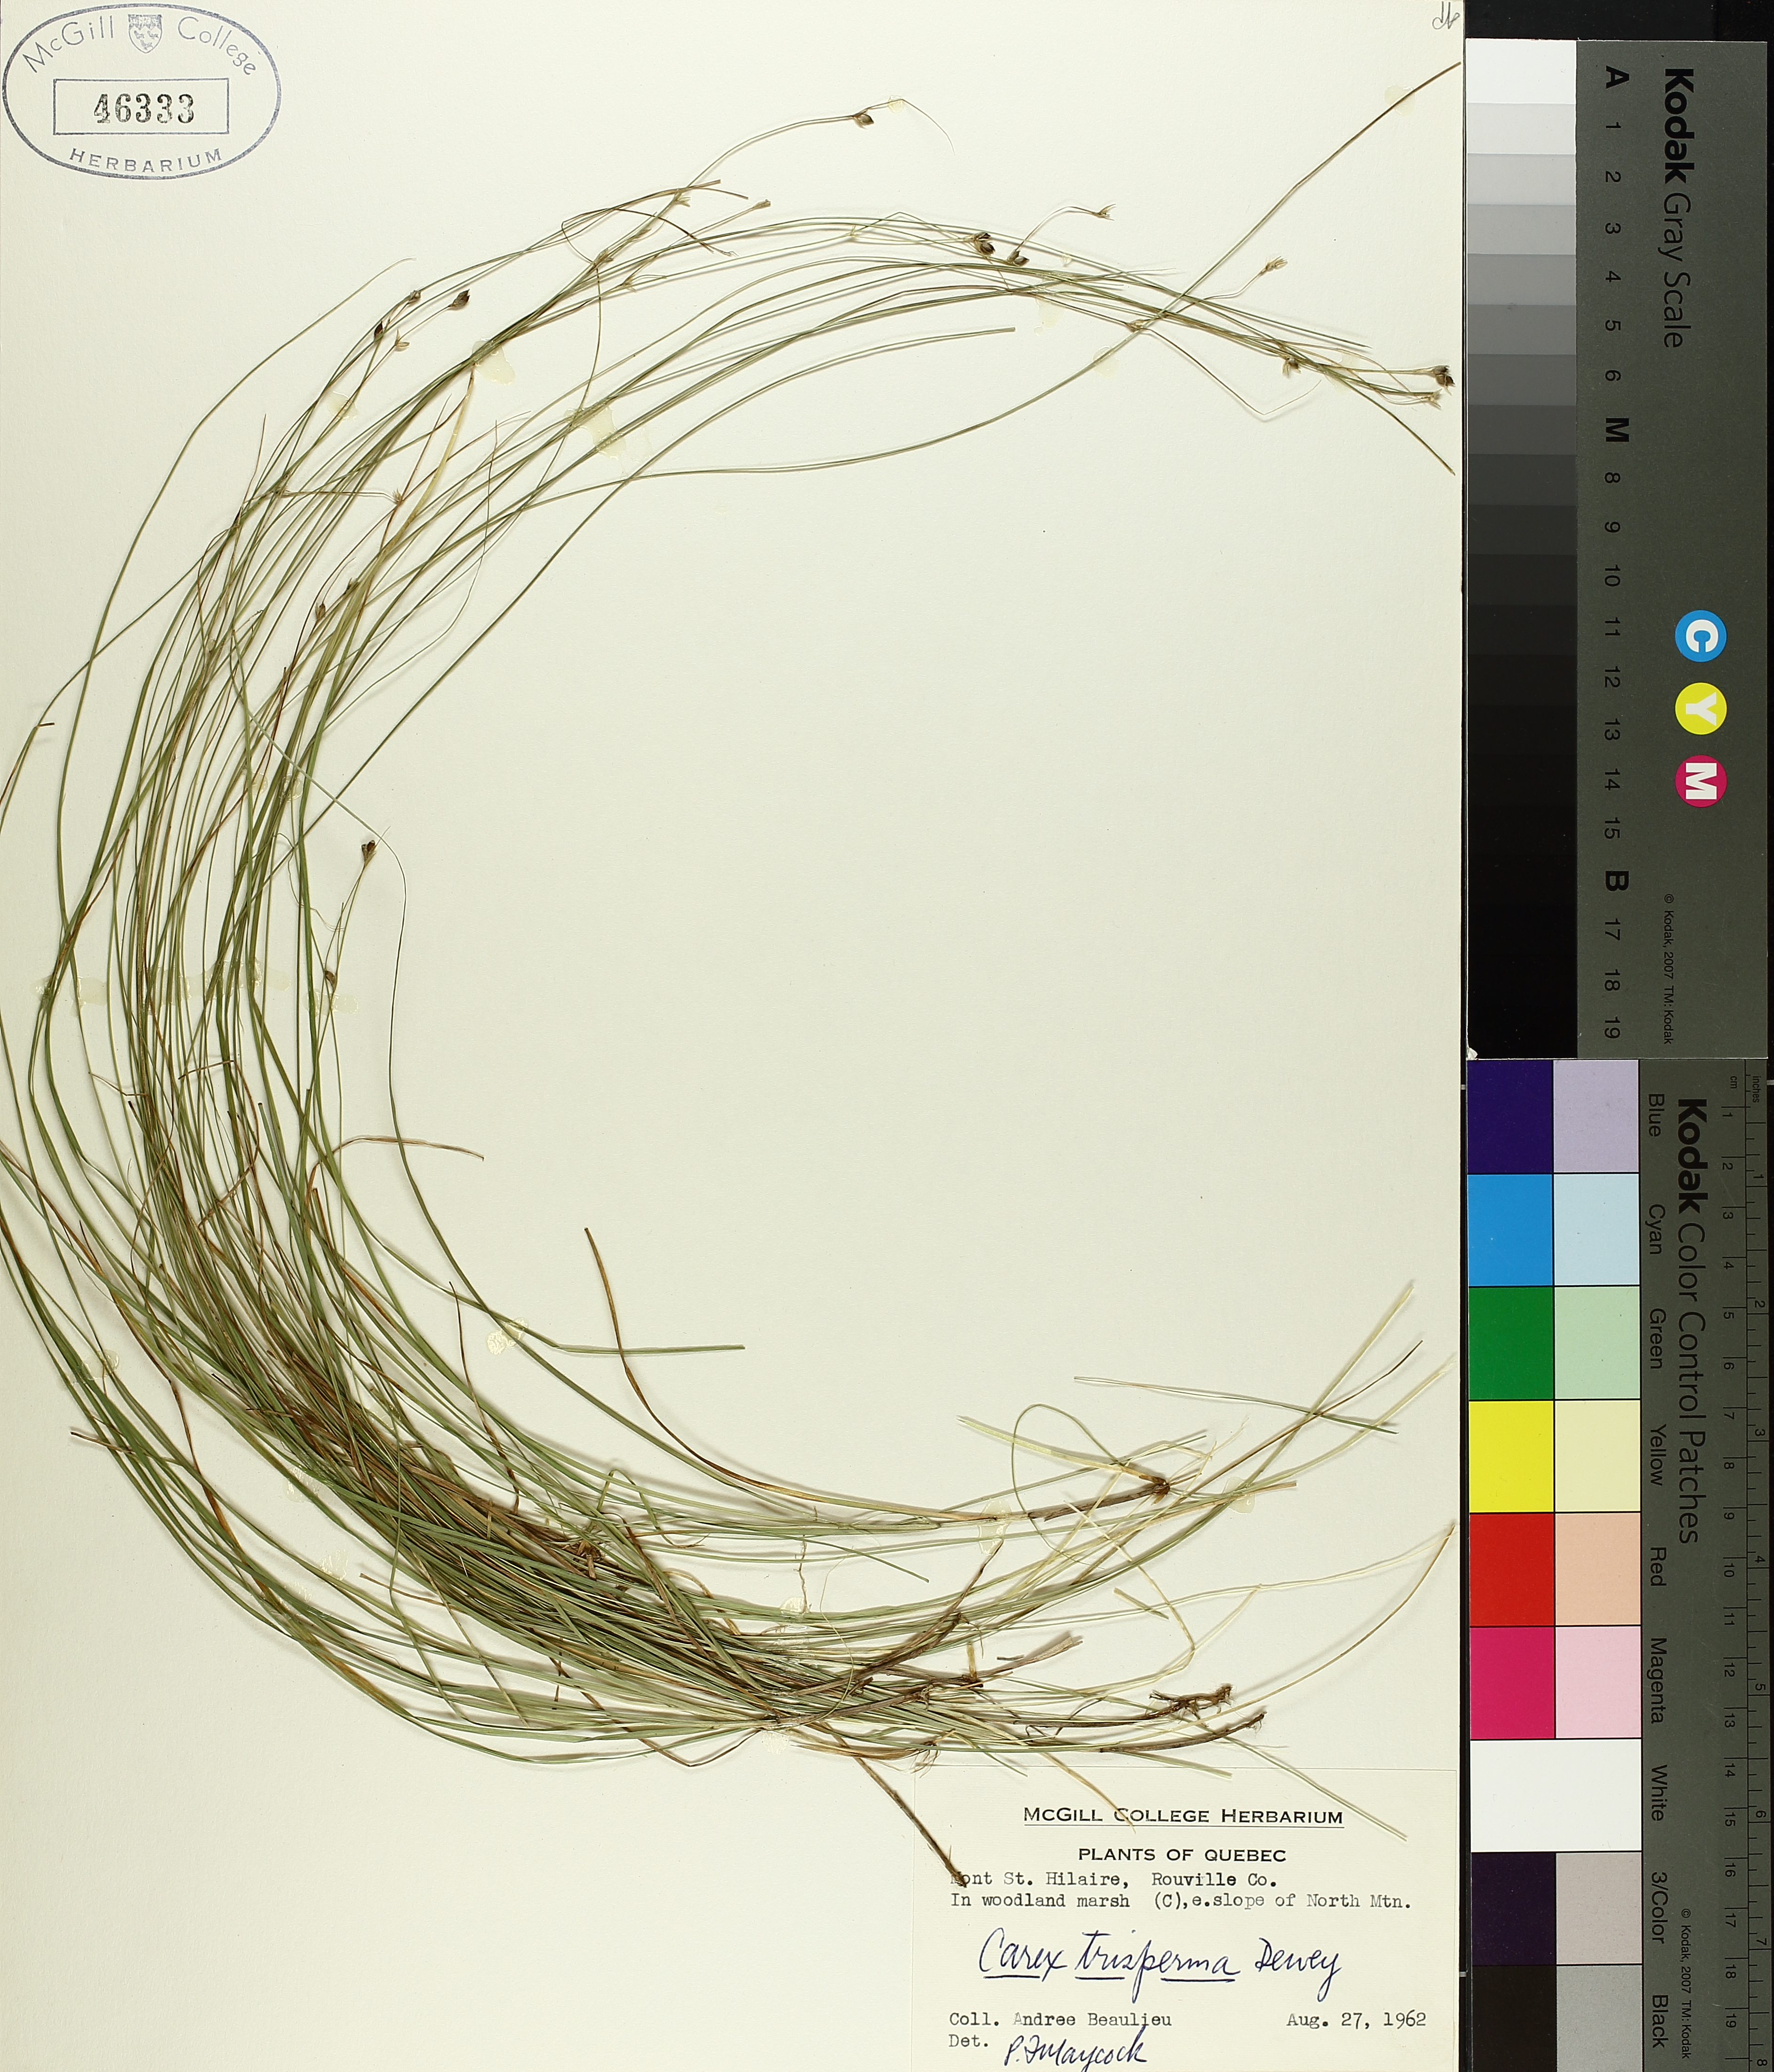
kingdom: Plantae
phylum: Tracheophyta
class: Liliopsida
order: Poales
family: Cyperaceae
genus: Carex
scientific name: Carex trisperma
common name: Three-seeded sedge
